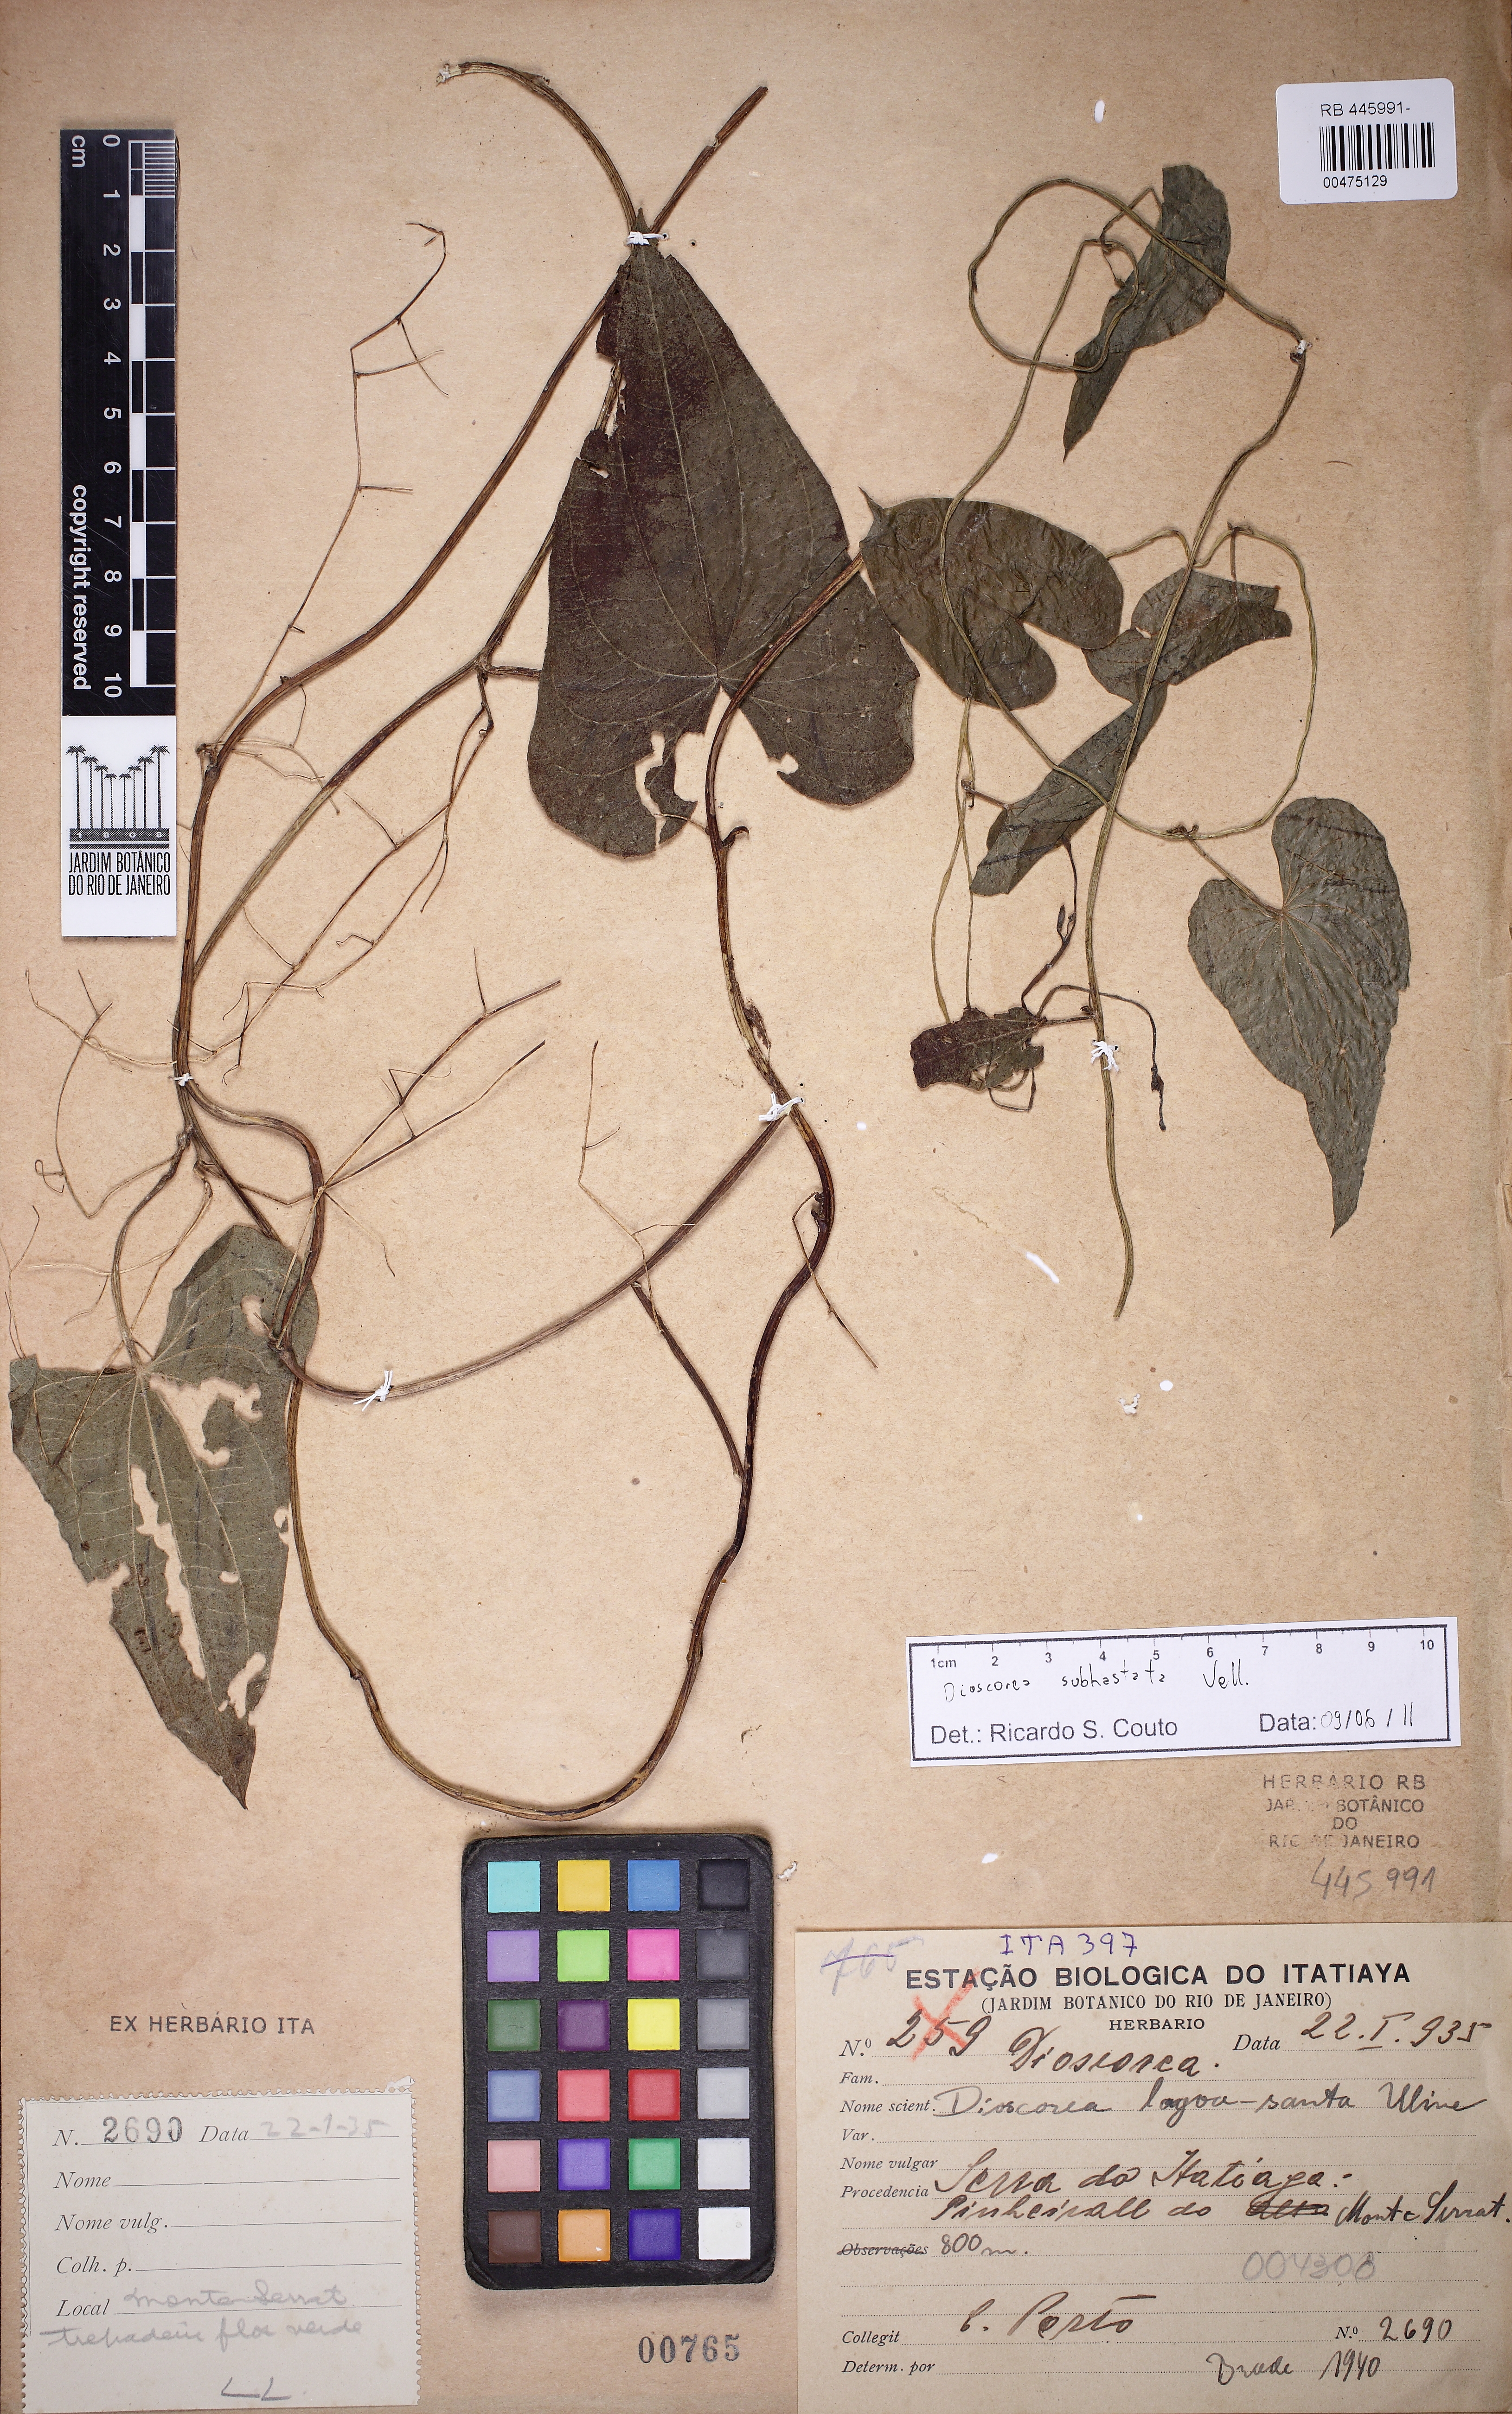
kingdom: Plantae
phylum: Tracheophyta
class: Liliopsida
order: Dioscoreales
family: Dioscoreaceae
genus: Dioscorea
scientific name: Dioscorea subhastata
